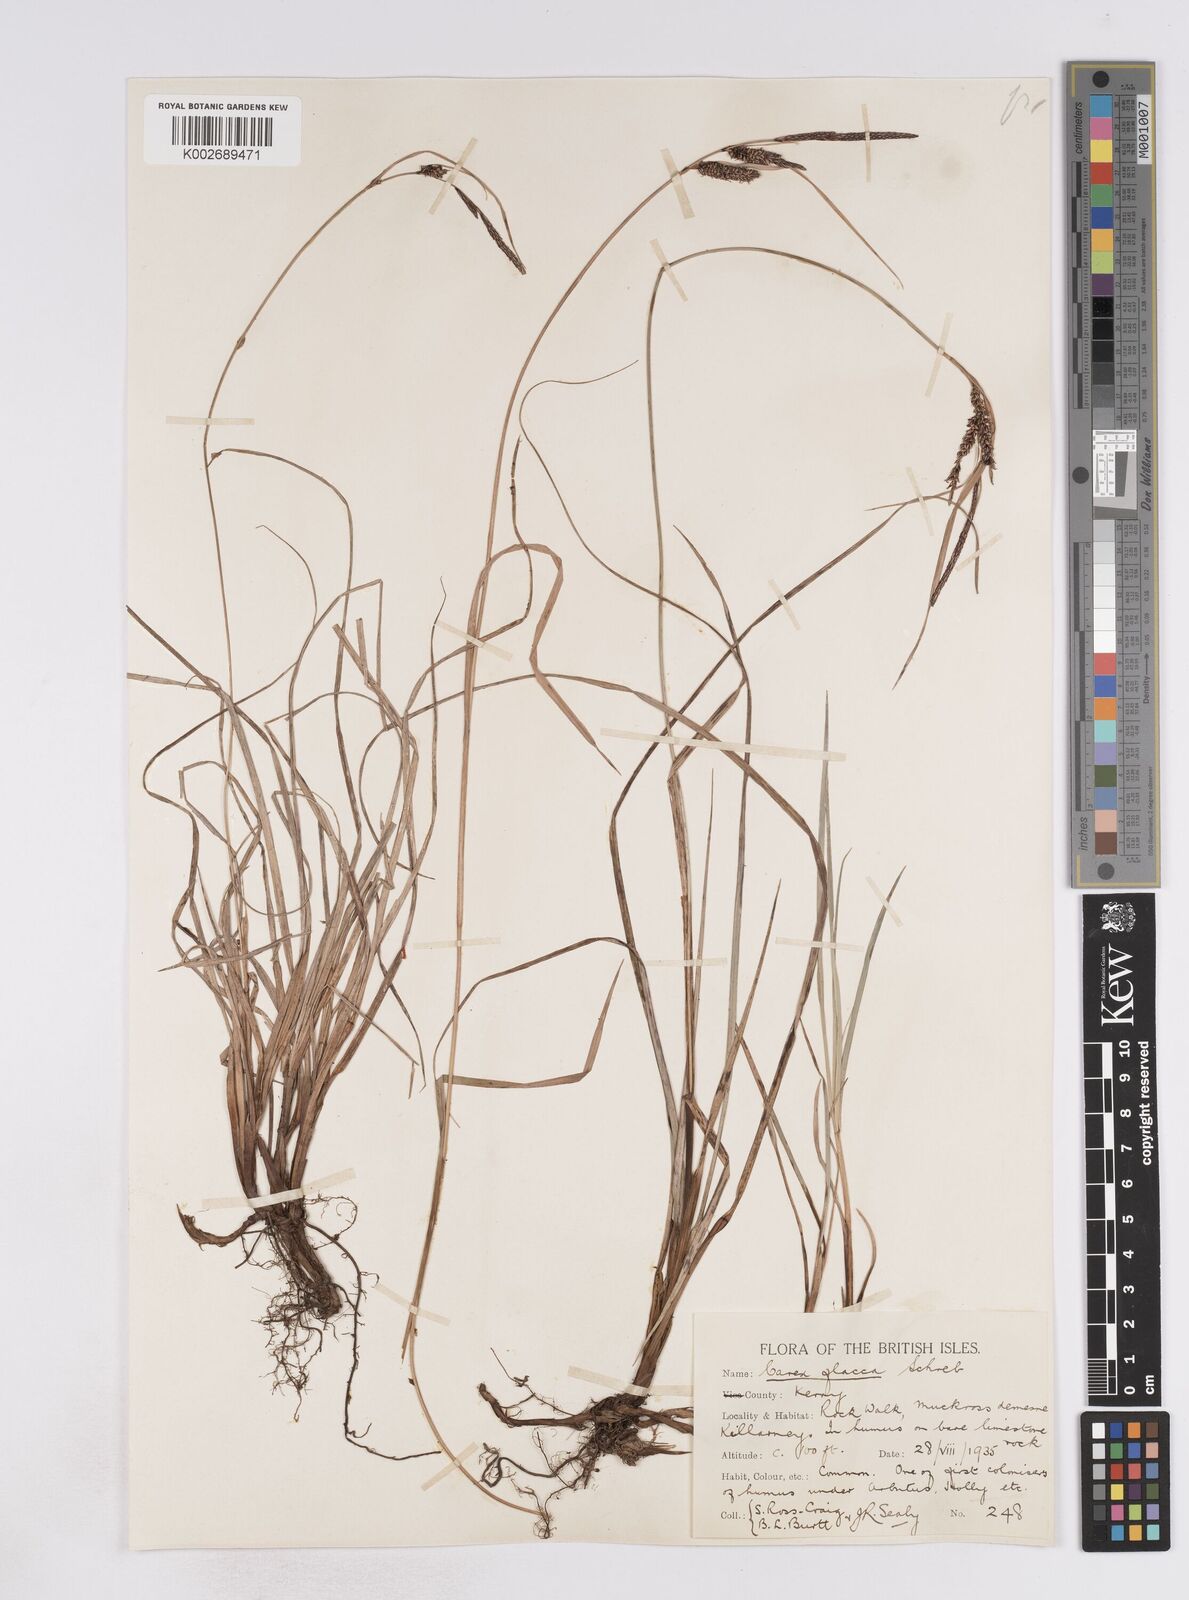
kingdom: Plantae
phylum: Tracheophyta
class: Liliopsida
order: Poales
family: Cyperaceae
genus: Carex
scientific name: Carex flacca
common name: Glaucous sedge
